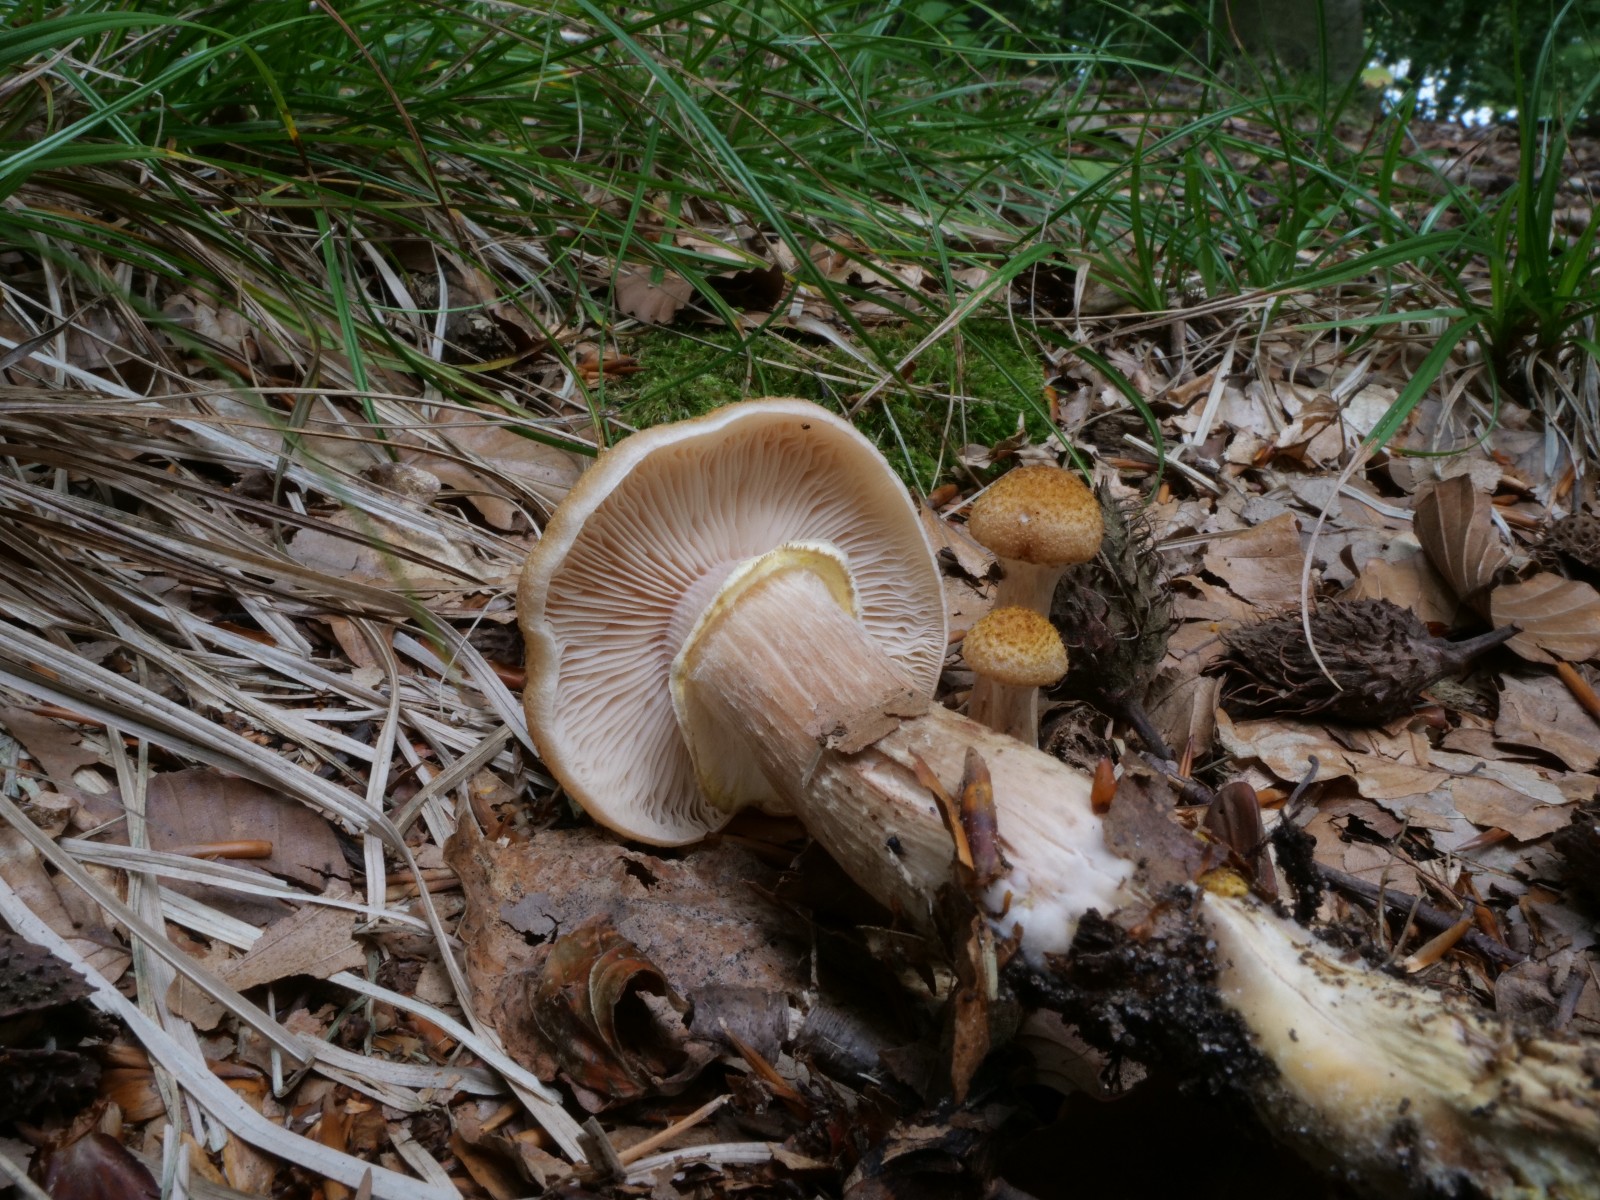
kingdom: Fungi
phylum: Basidiomycota
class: Agaricomycetes
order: Agaricales
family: Physalacriaceae
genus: Armillaria
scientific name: Armillaria lutea
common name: køllestokket honningsvamp
